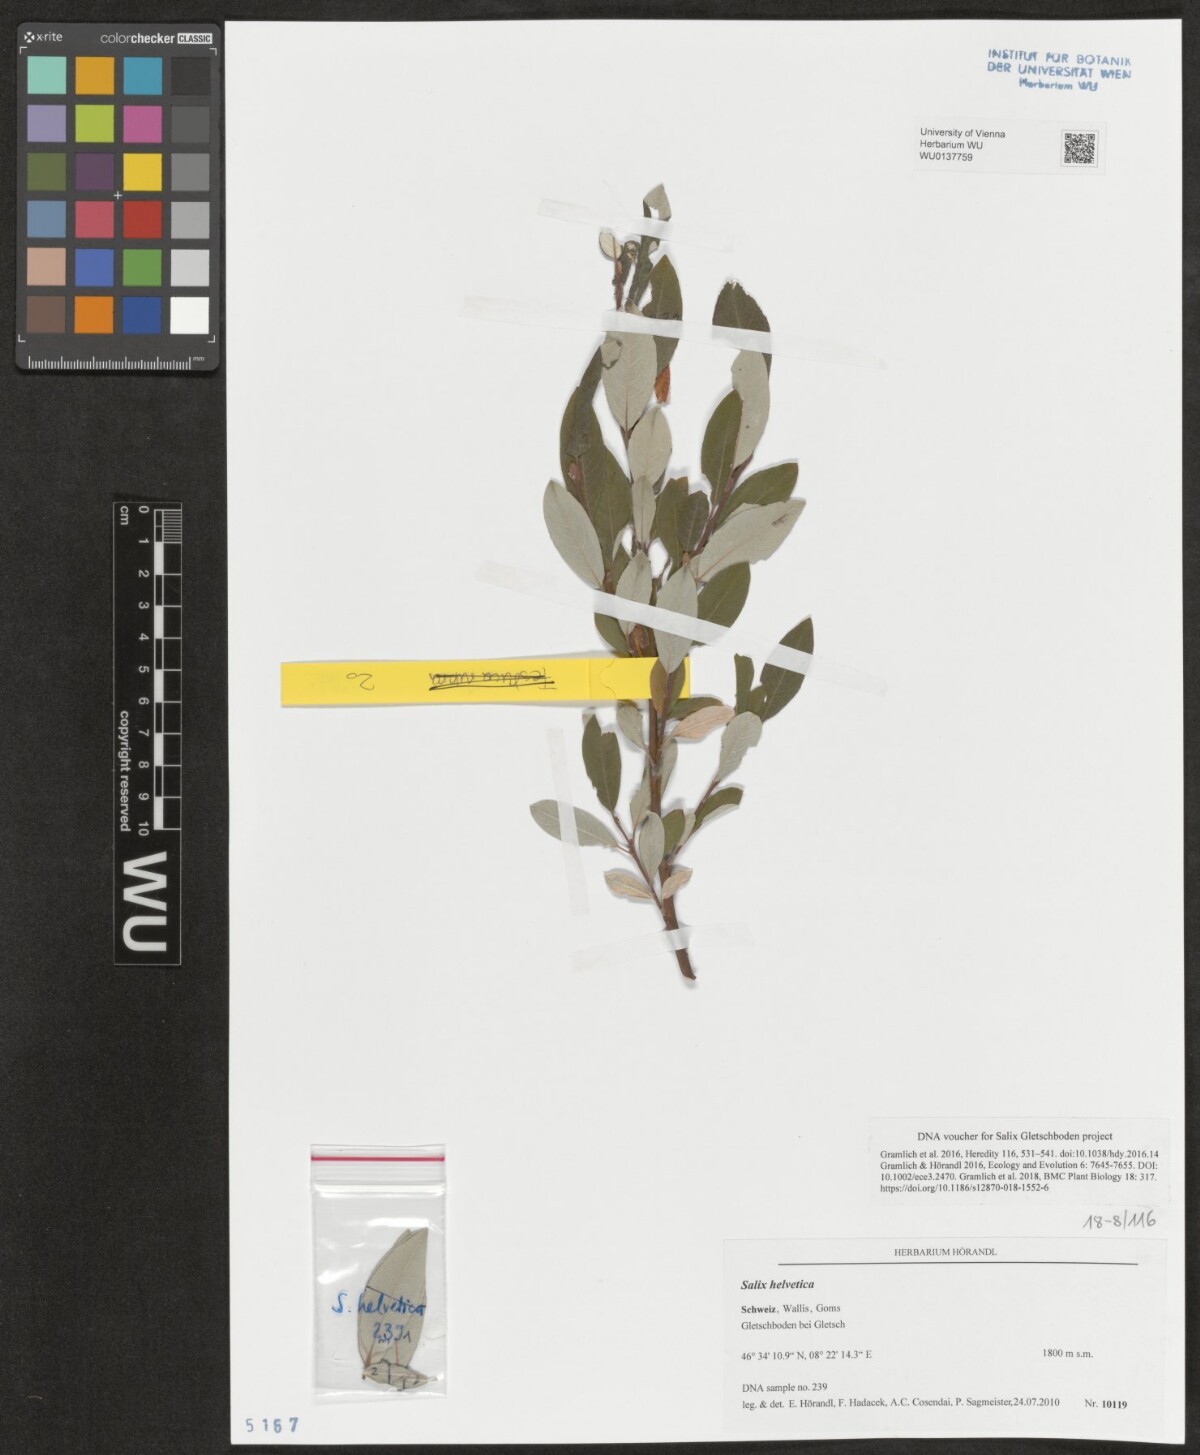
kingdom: Plantae
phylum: Tracheophyta
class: Magnoliopsida
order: Malpighiales
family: Salicaceae
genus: Salix
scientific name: Salix helvetica
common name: Swiss willow
